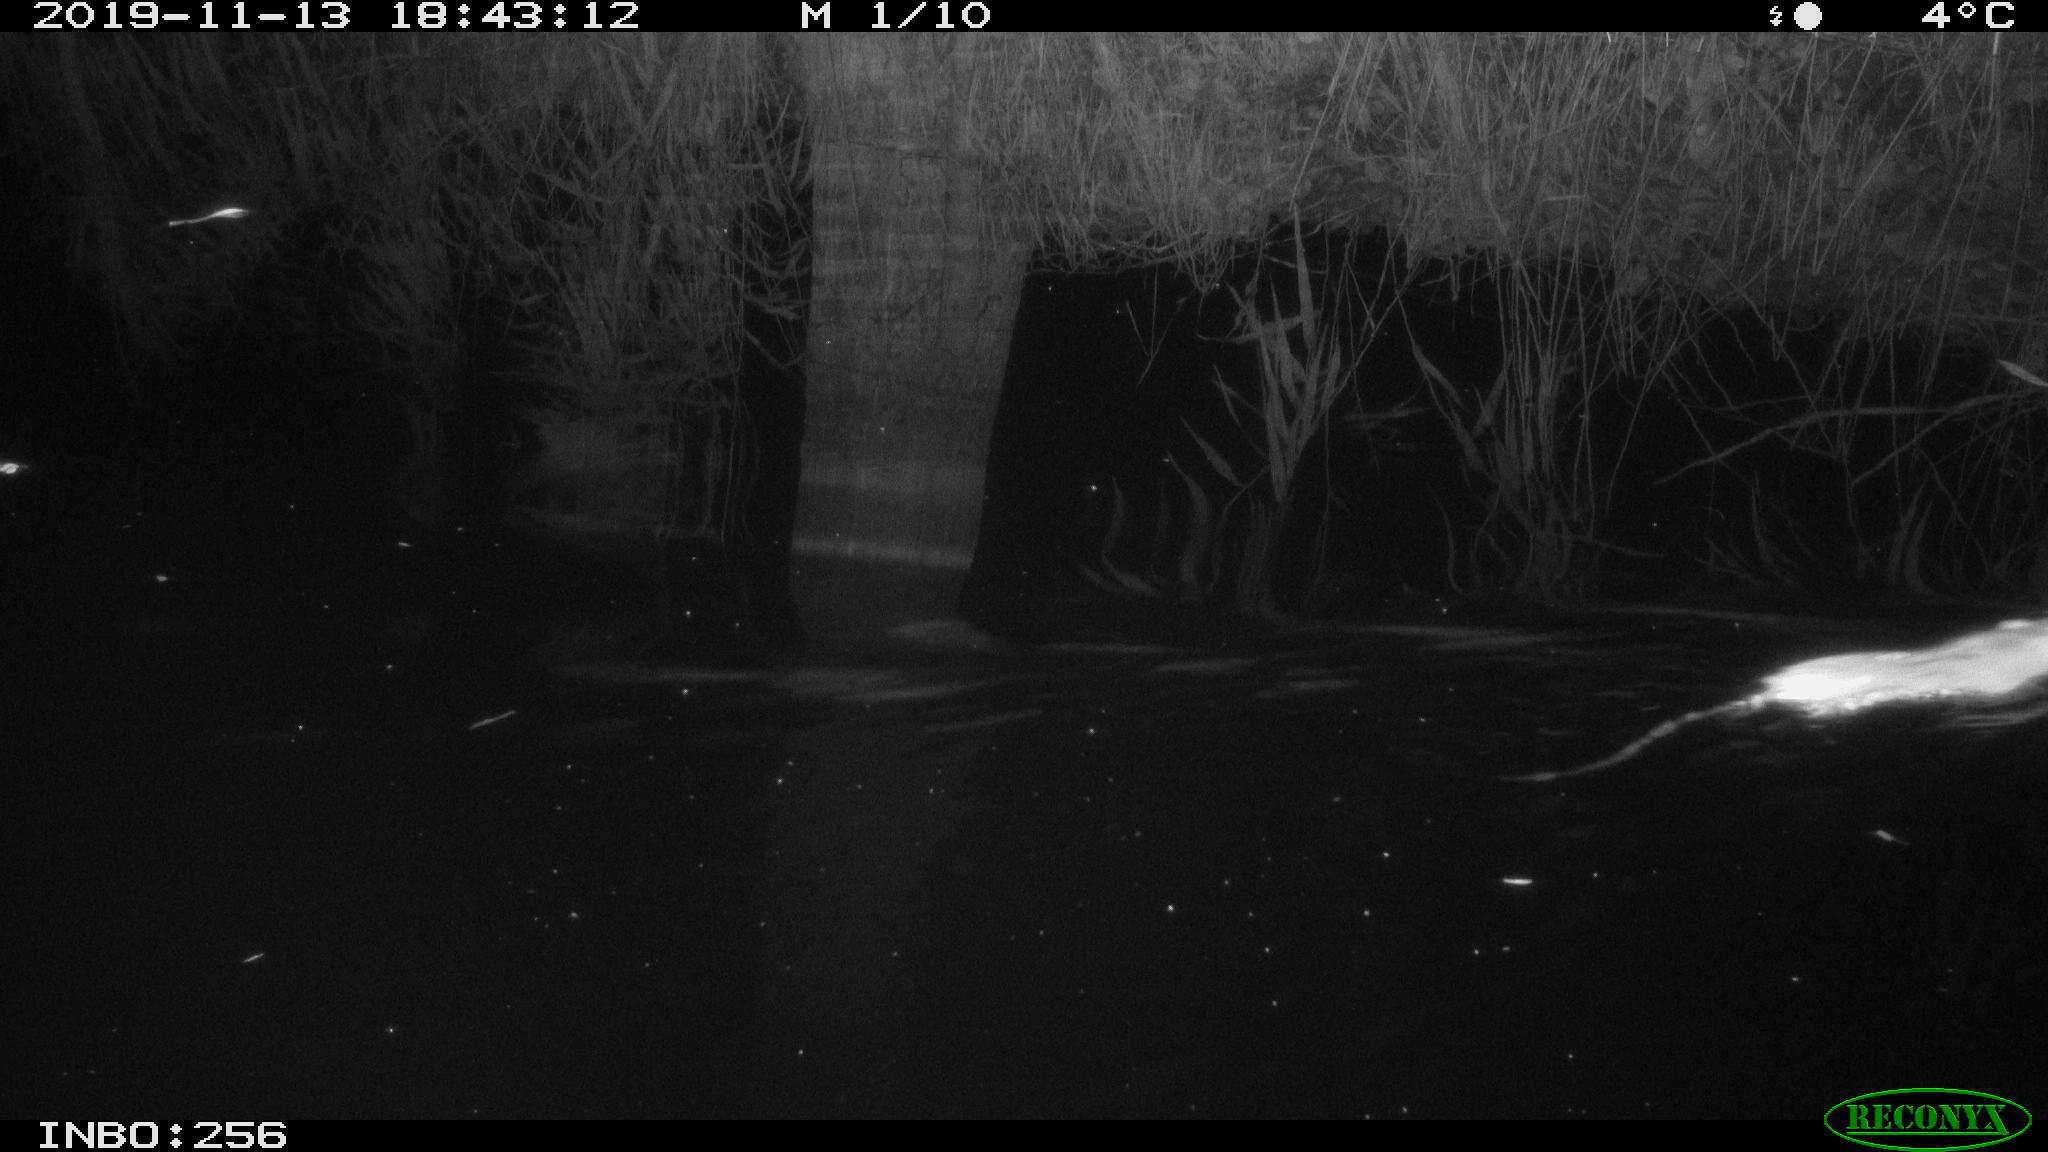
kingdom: Animalia
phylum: Chordata
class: Mammalia
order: Rodentia
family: Muridae
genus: Rattus
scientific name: Rattus norvegicus
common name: Brown rat
